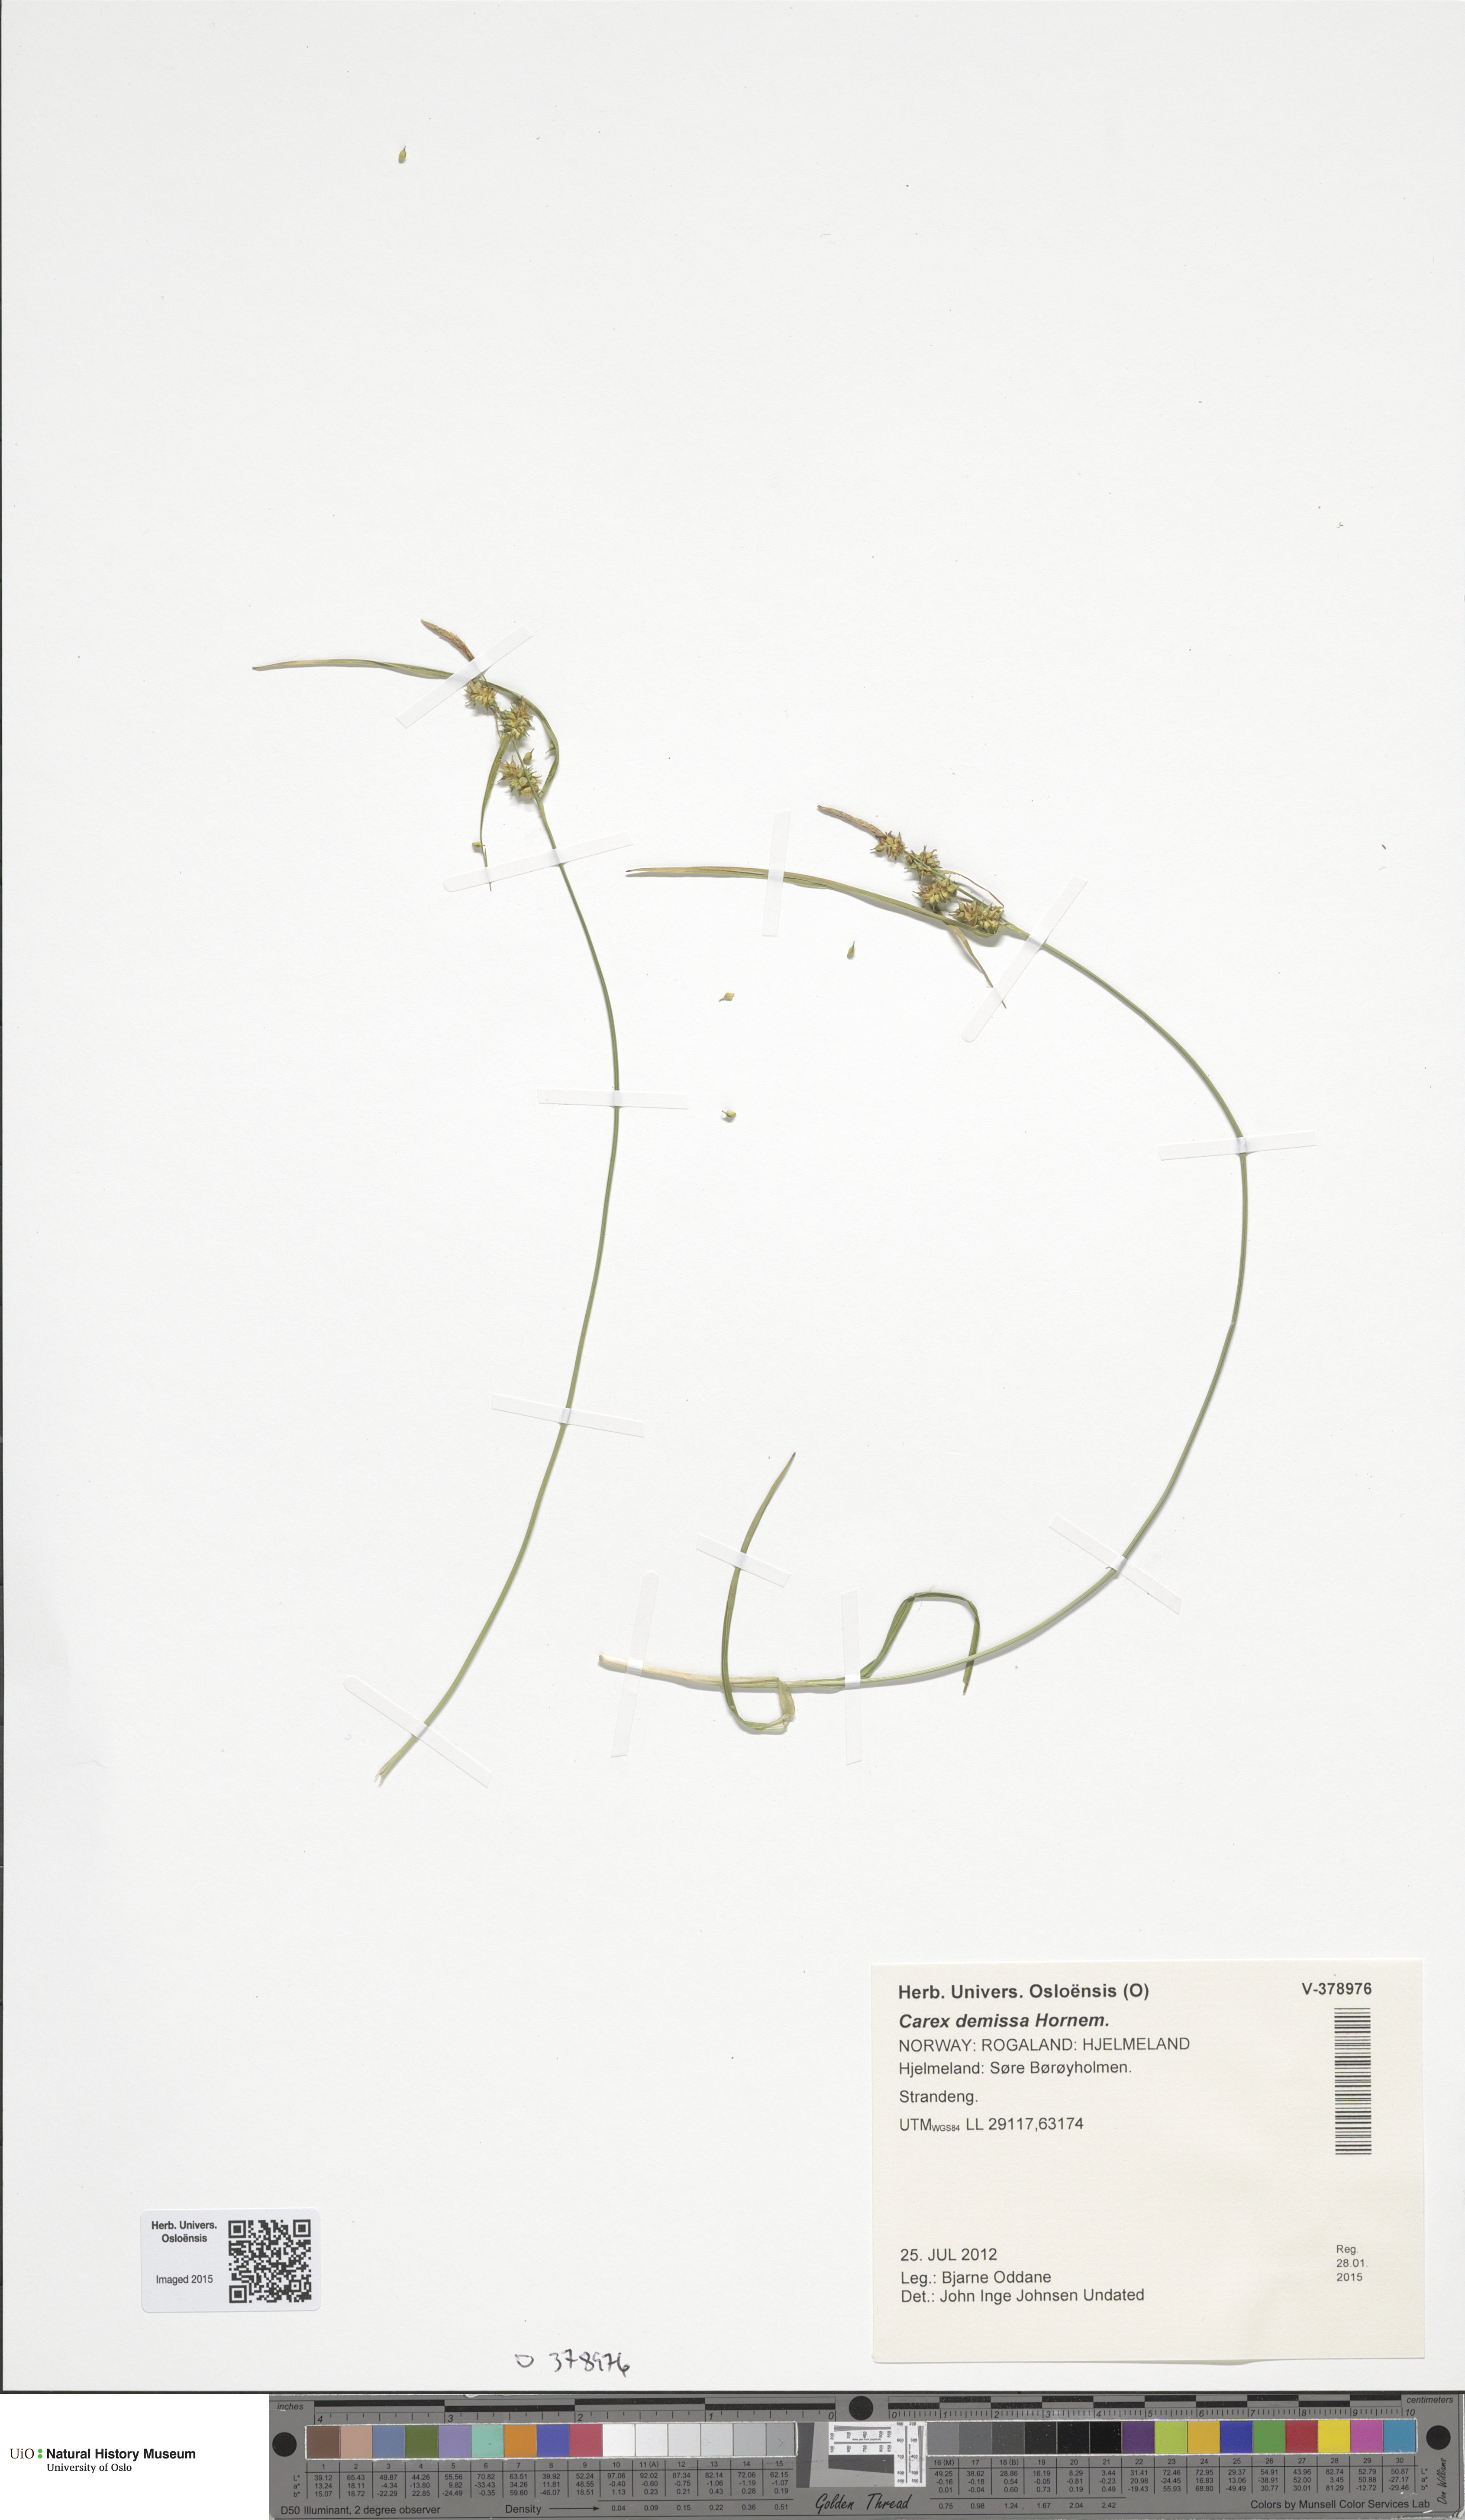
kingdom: Plantae
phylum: Tracheophyta
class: Liliopsida
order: Poales
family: Cyperaceae
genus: Carex
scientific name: Carex demissa
